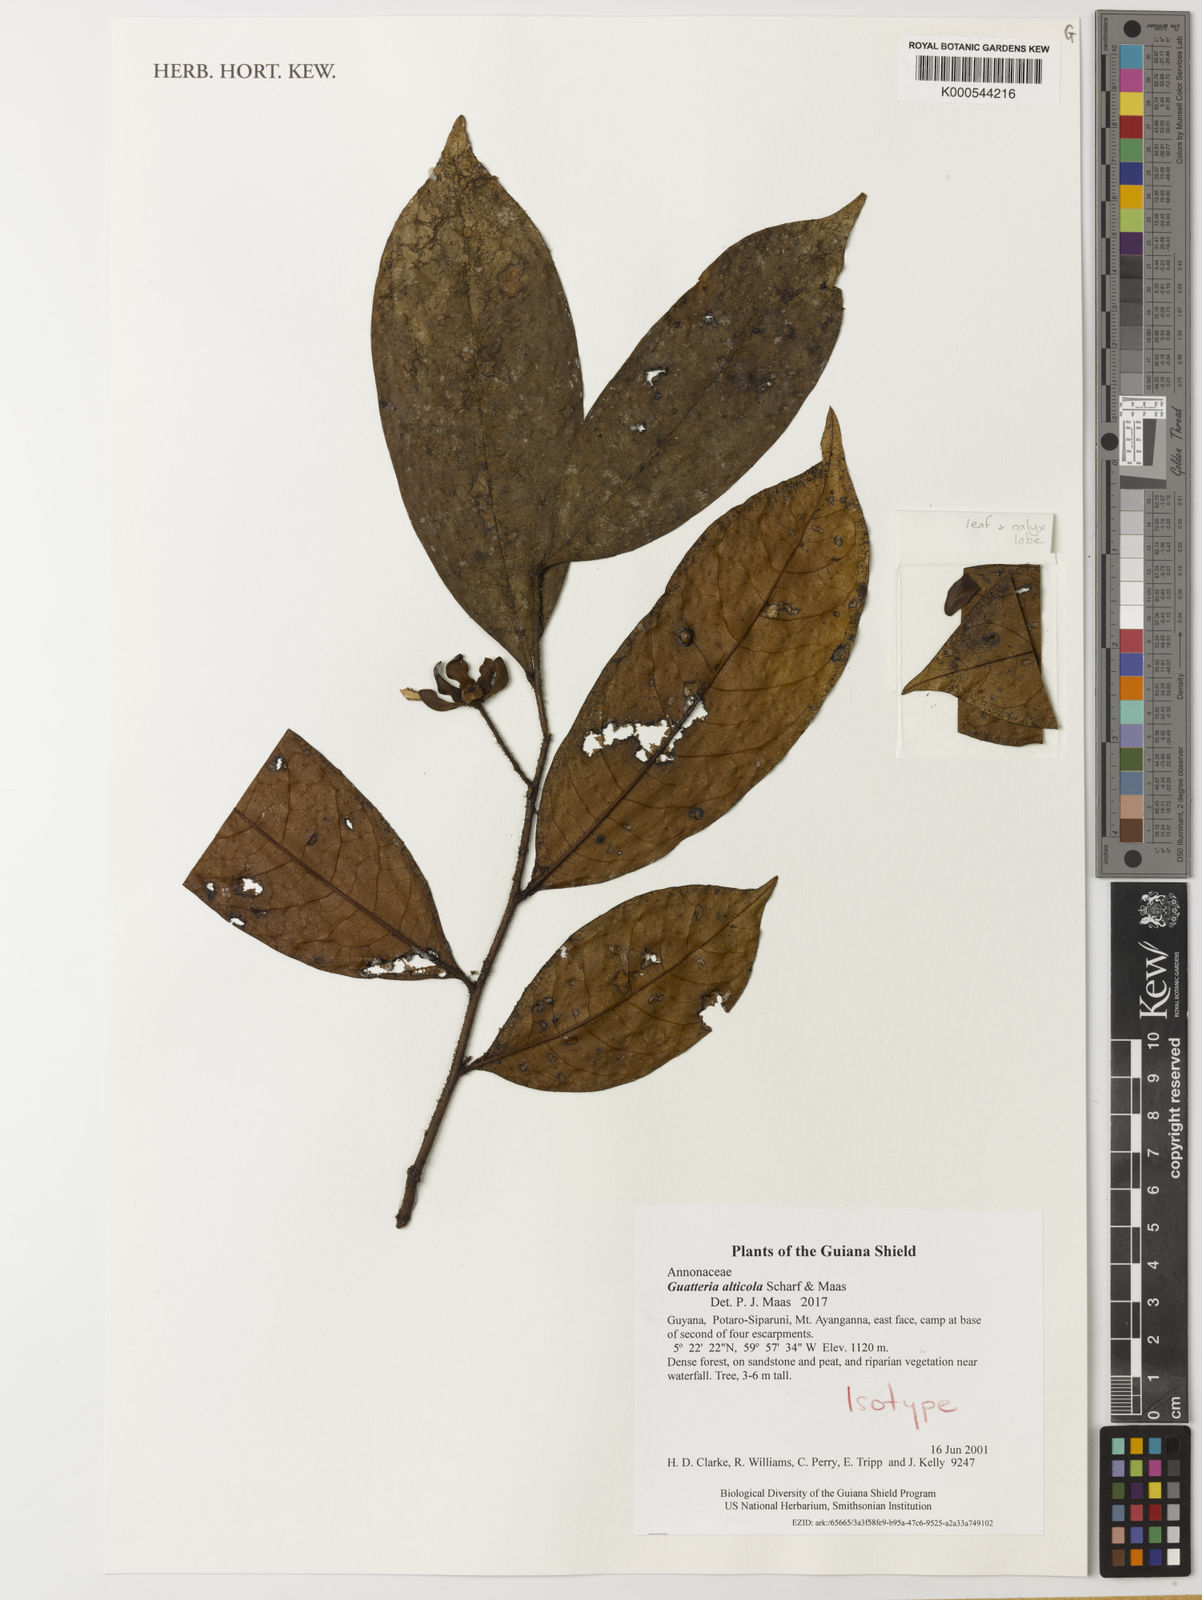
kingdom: Plantae
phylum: Tracheophyta
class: Magnoliopsida
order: Magnoliales
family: Annonaceae
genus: Guatteria
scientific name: Guatteria alticola
